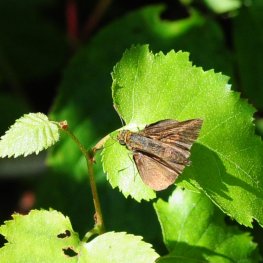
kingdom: Animalia
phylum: Arthropoda
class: Insecta
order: Lepidoptera
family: Hesperiidae
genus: Euphyes
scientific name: Euphyes vestris
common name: Dun Skipper
